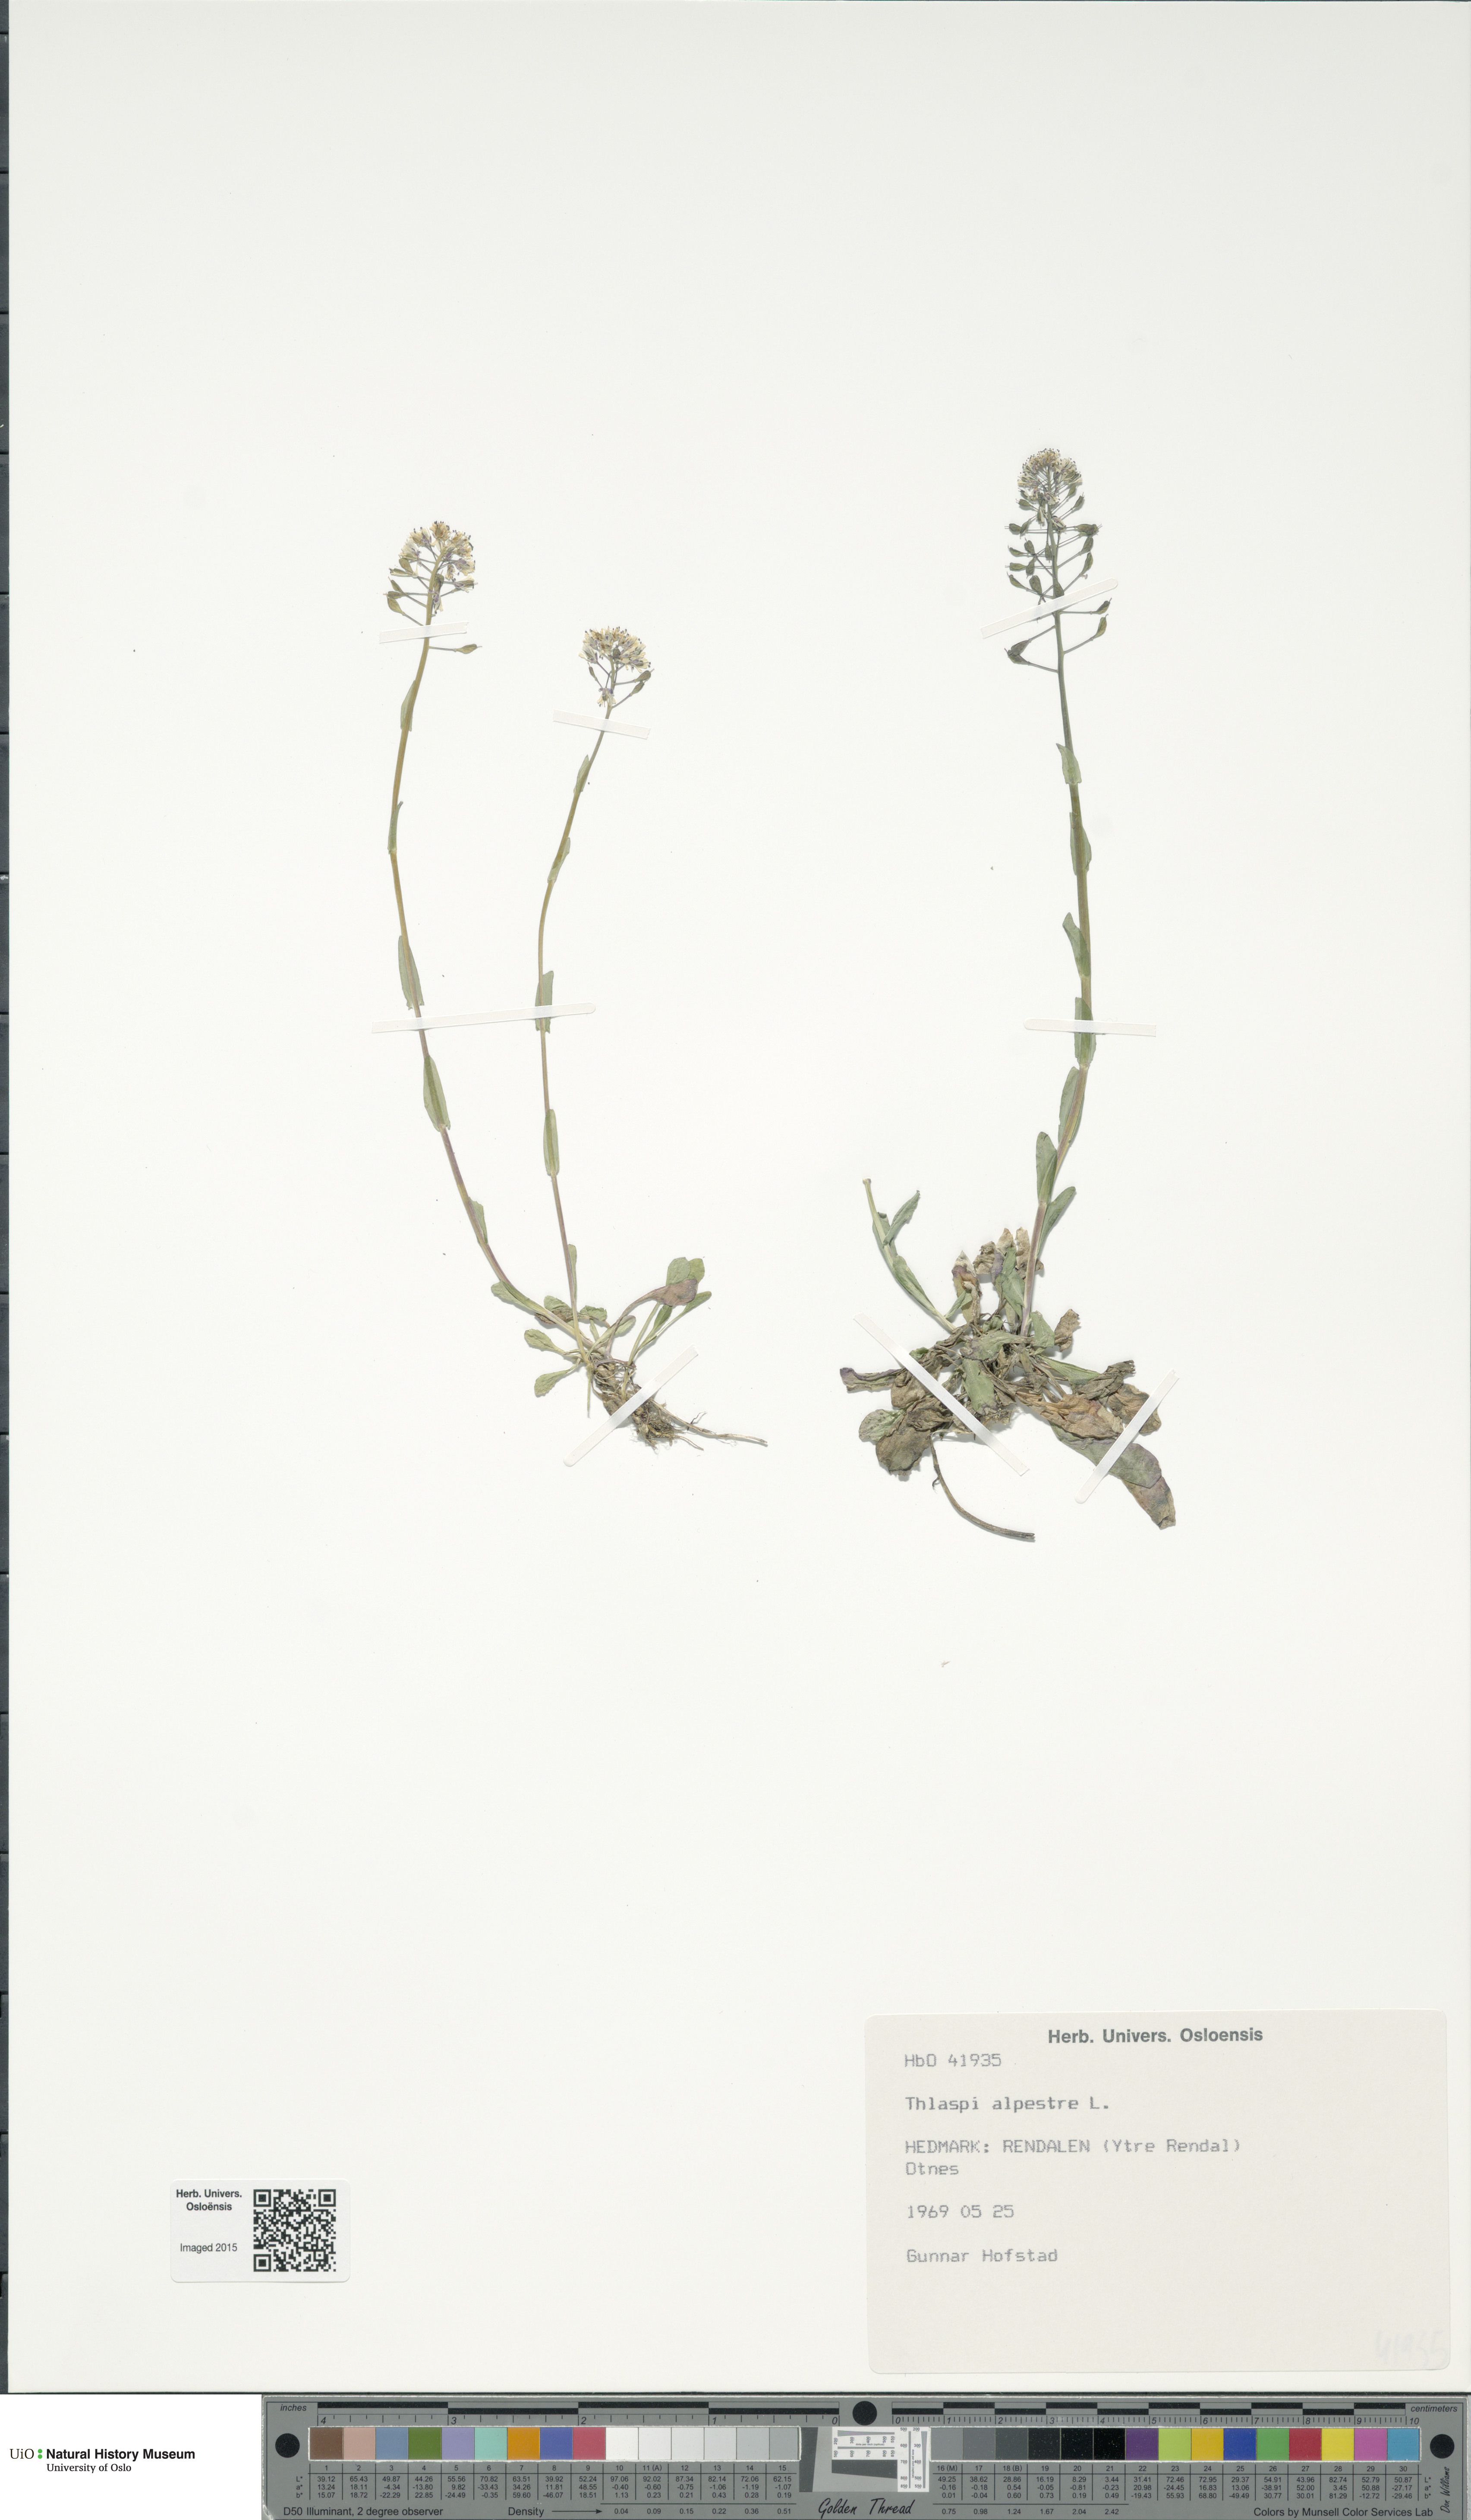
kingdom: Plantae
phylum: Tracheophyta
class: Magnoliopsida
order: Brassicales
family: Brassicaceae
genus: Noccaea
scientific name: Noccaea caerulescens
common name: Alpine pennycress
